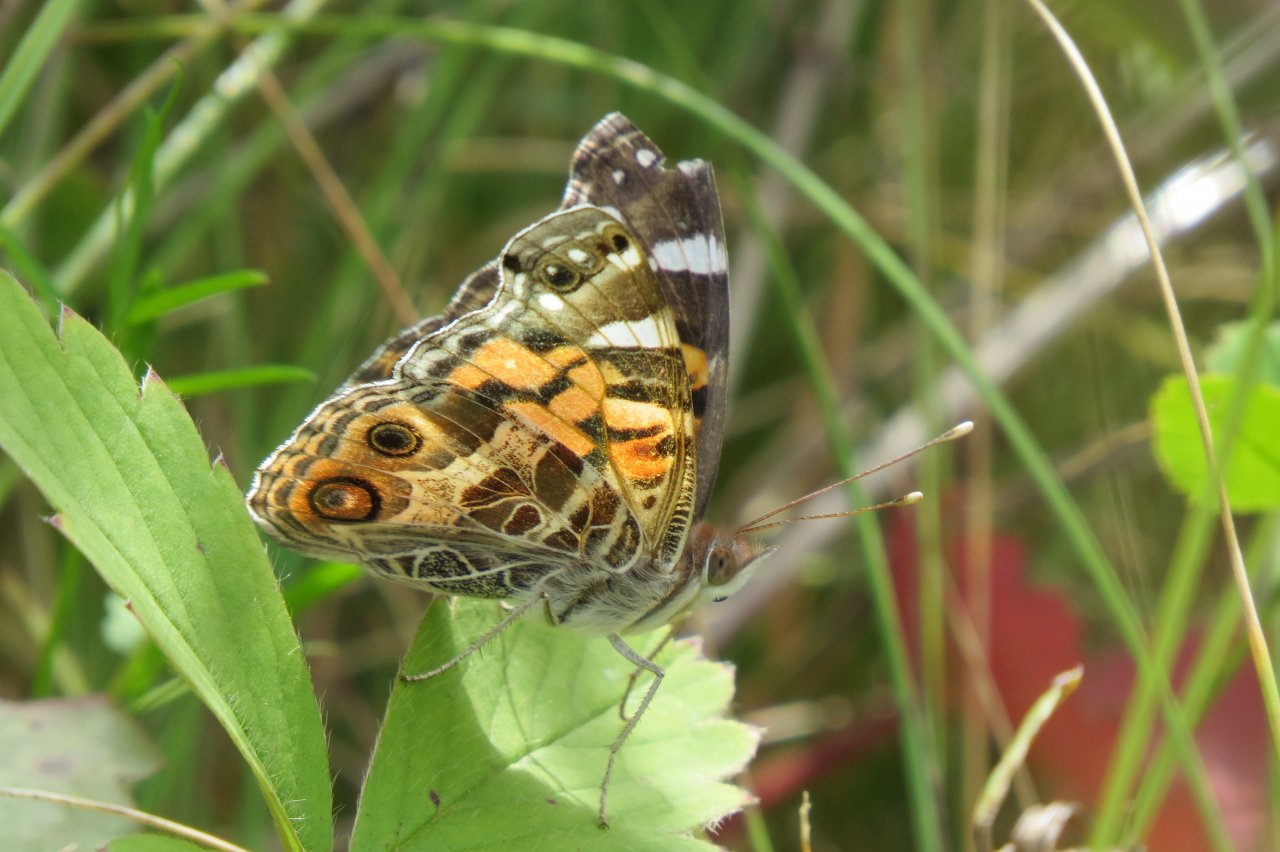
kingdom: Animalia
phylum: Arthropoda
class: Insecta
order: Lepidoptera
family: Nymphalidae
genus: Vanessa
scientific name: Vanessa virginiensis
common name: American Lady
